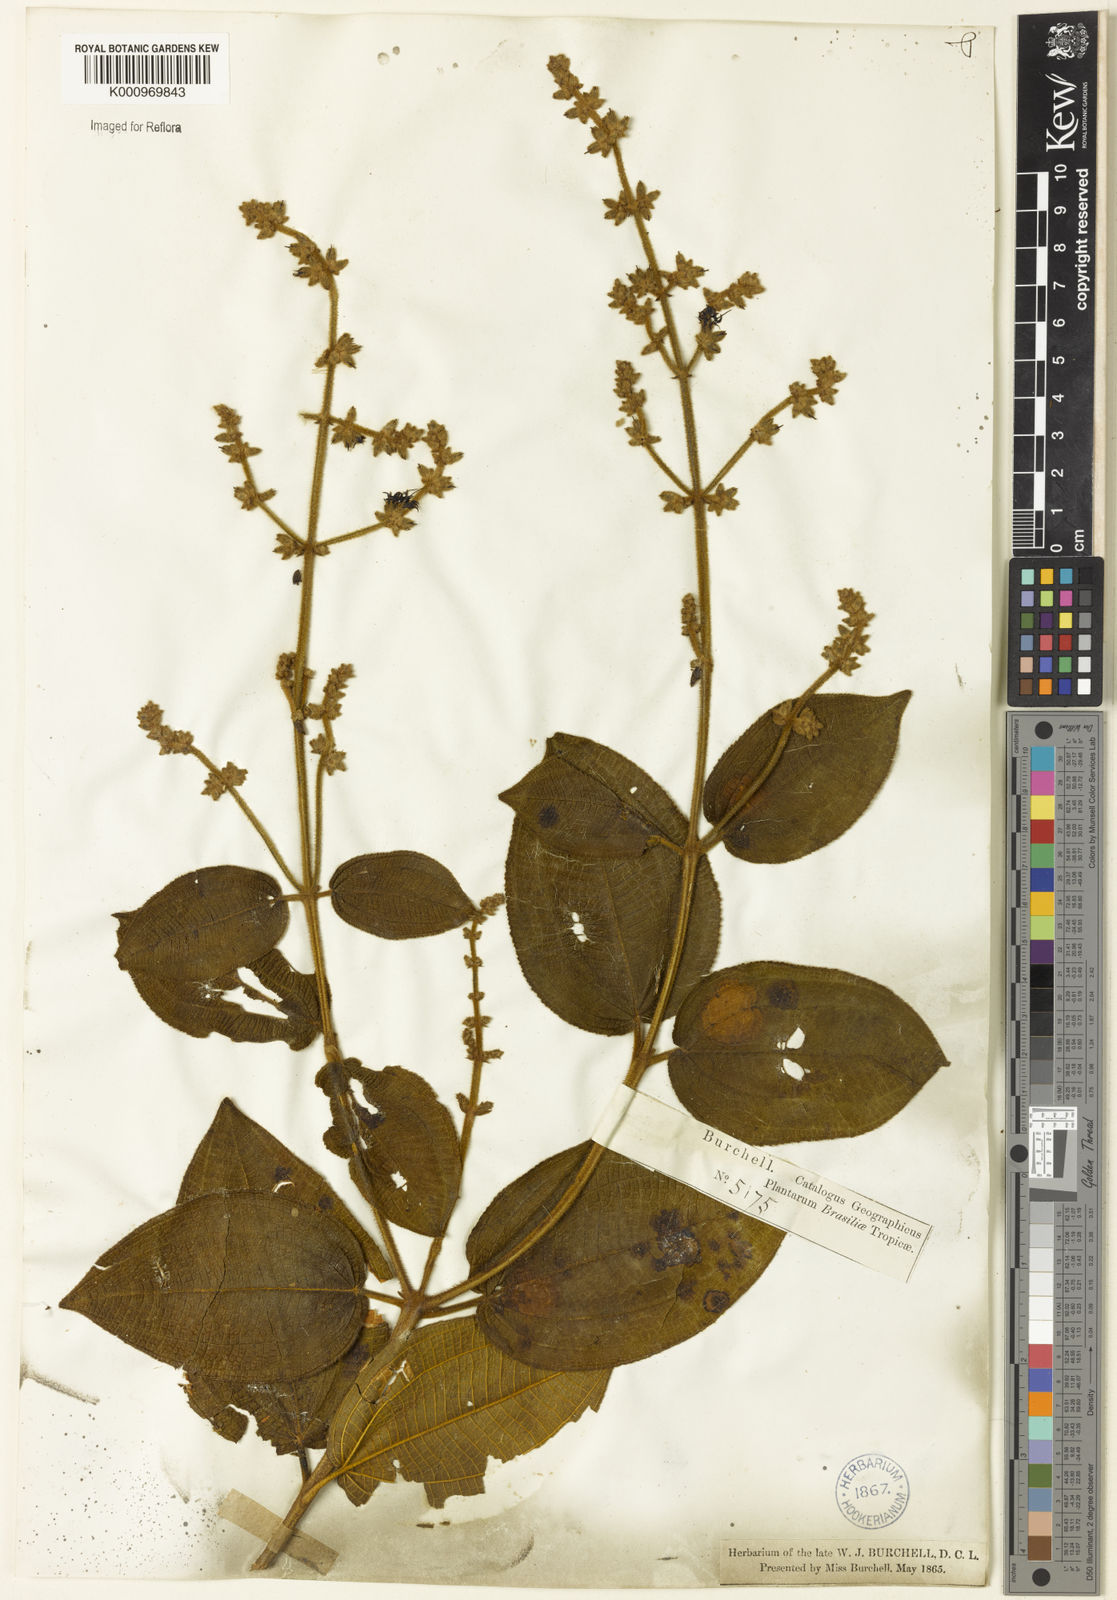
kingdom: Plantae
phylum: Tracheophyta
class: Magnoliopsida
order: Myrtales
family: Melastomataceae
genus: Miconia
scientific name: Miconia
